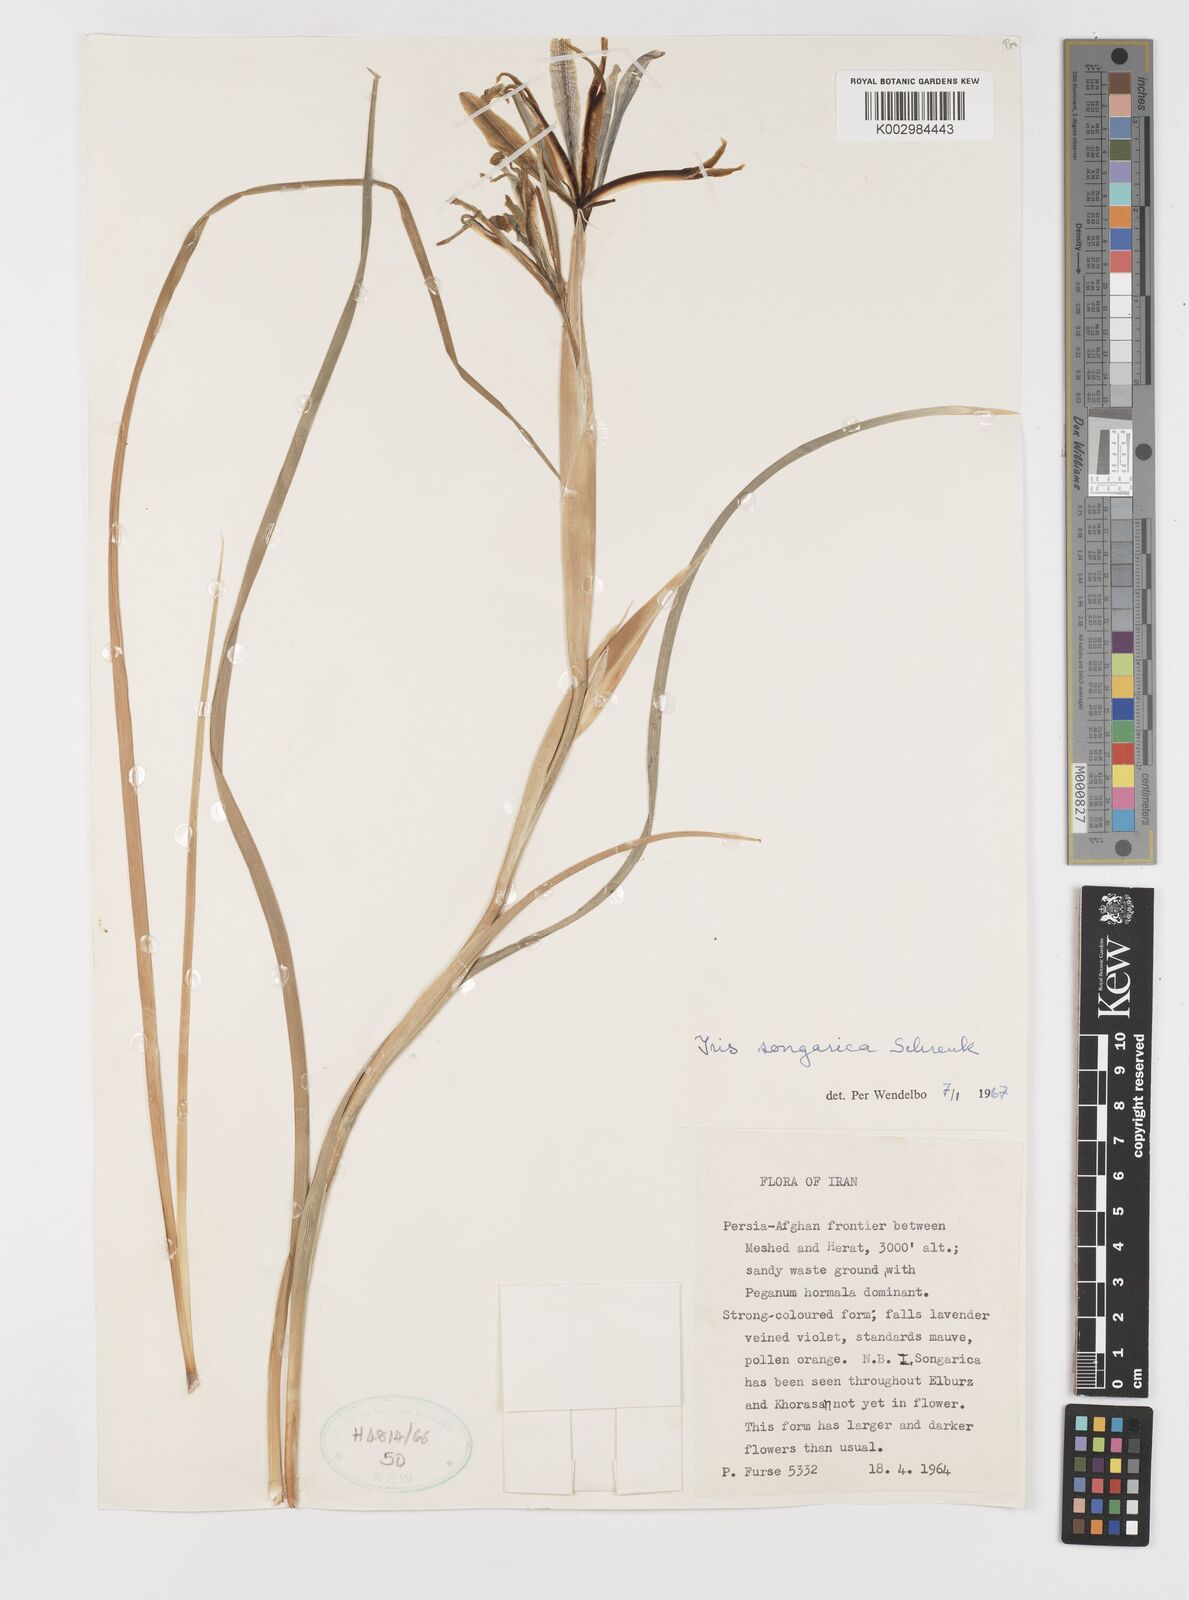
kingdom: Plantae
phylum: Tracheophyta
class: Liliopsida
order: Asparagales
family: Iridaceae
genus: Iris
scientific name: Iris songarica
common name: Songar iris
